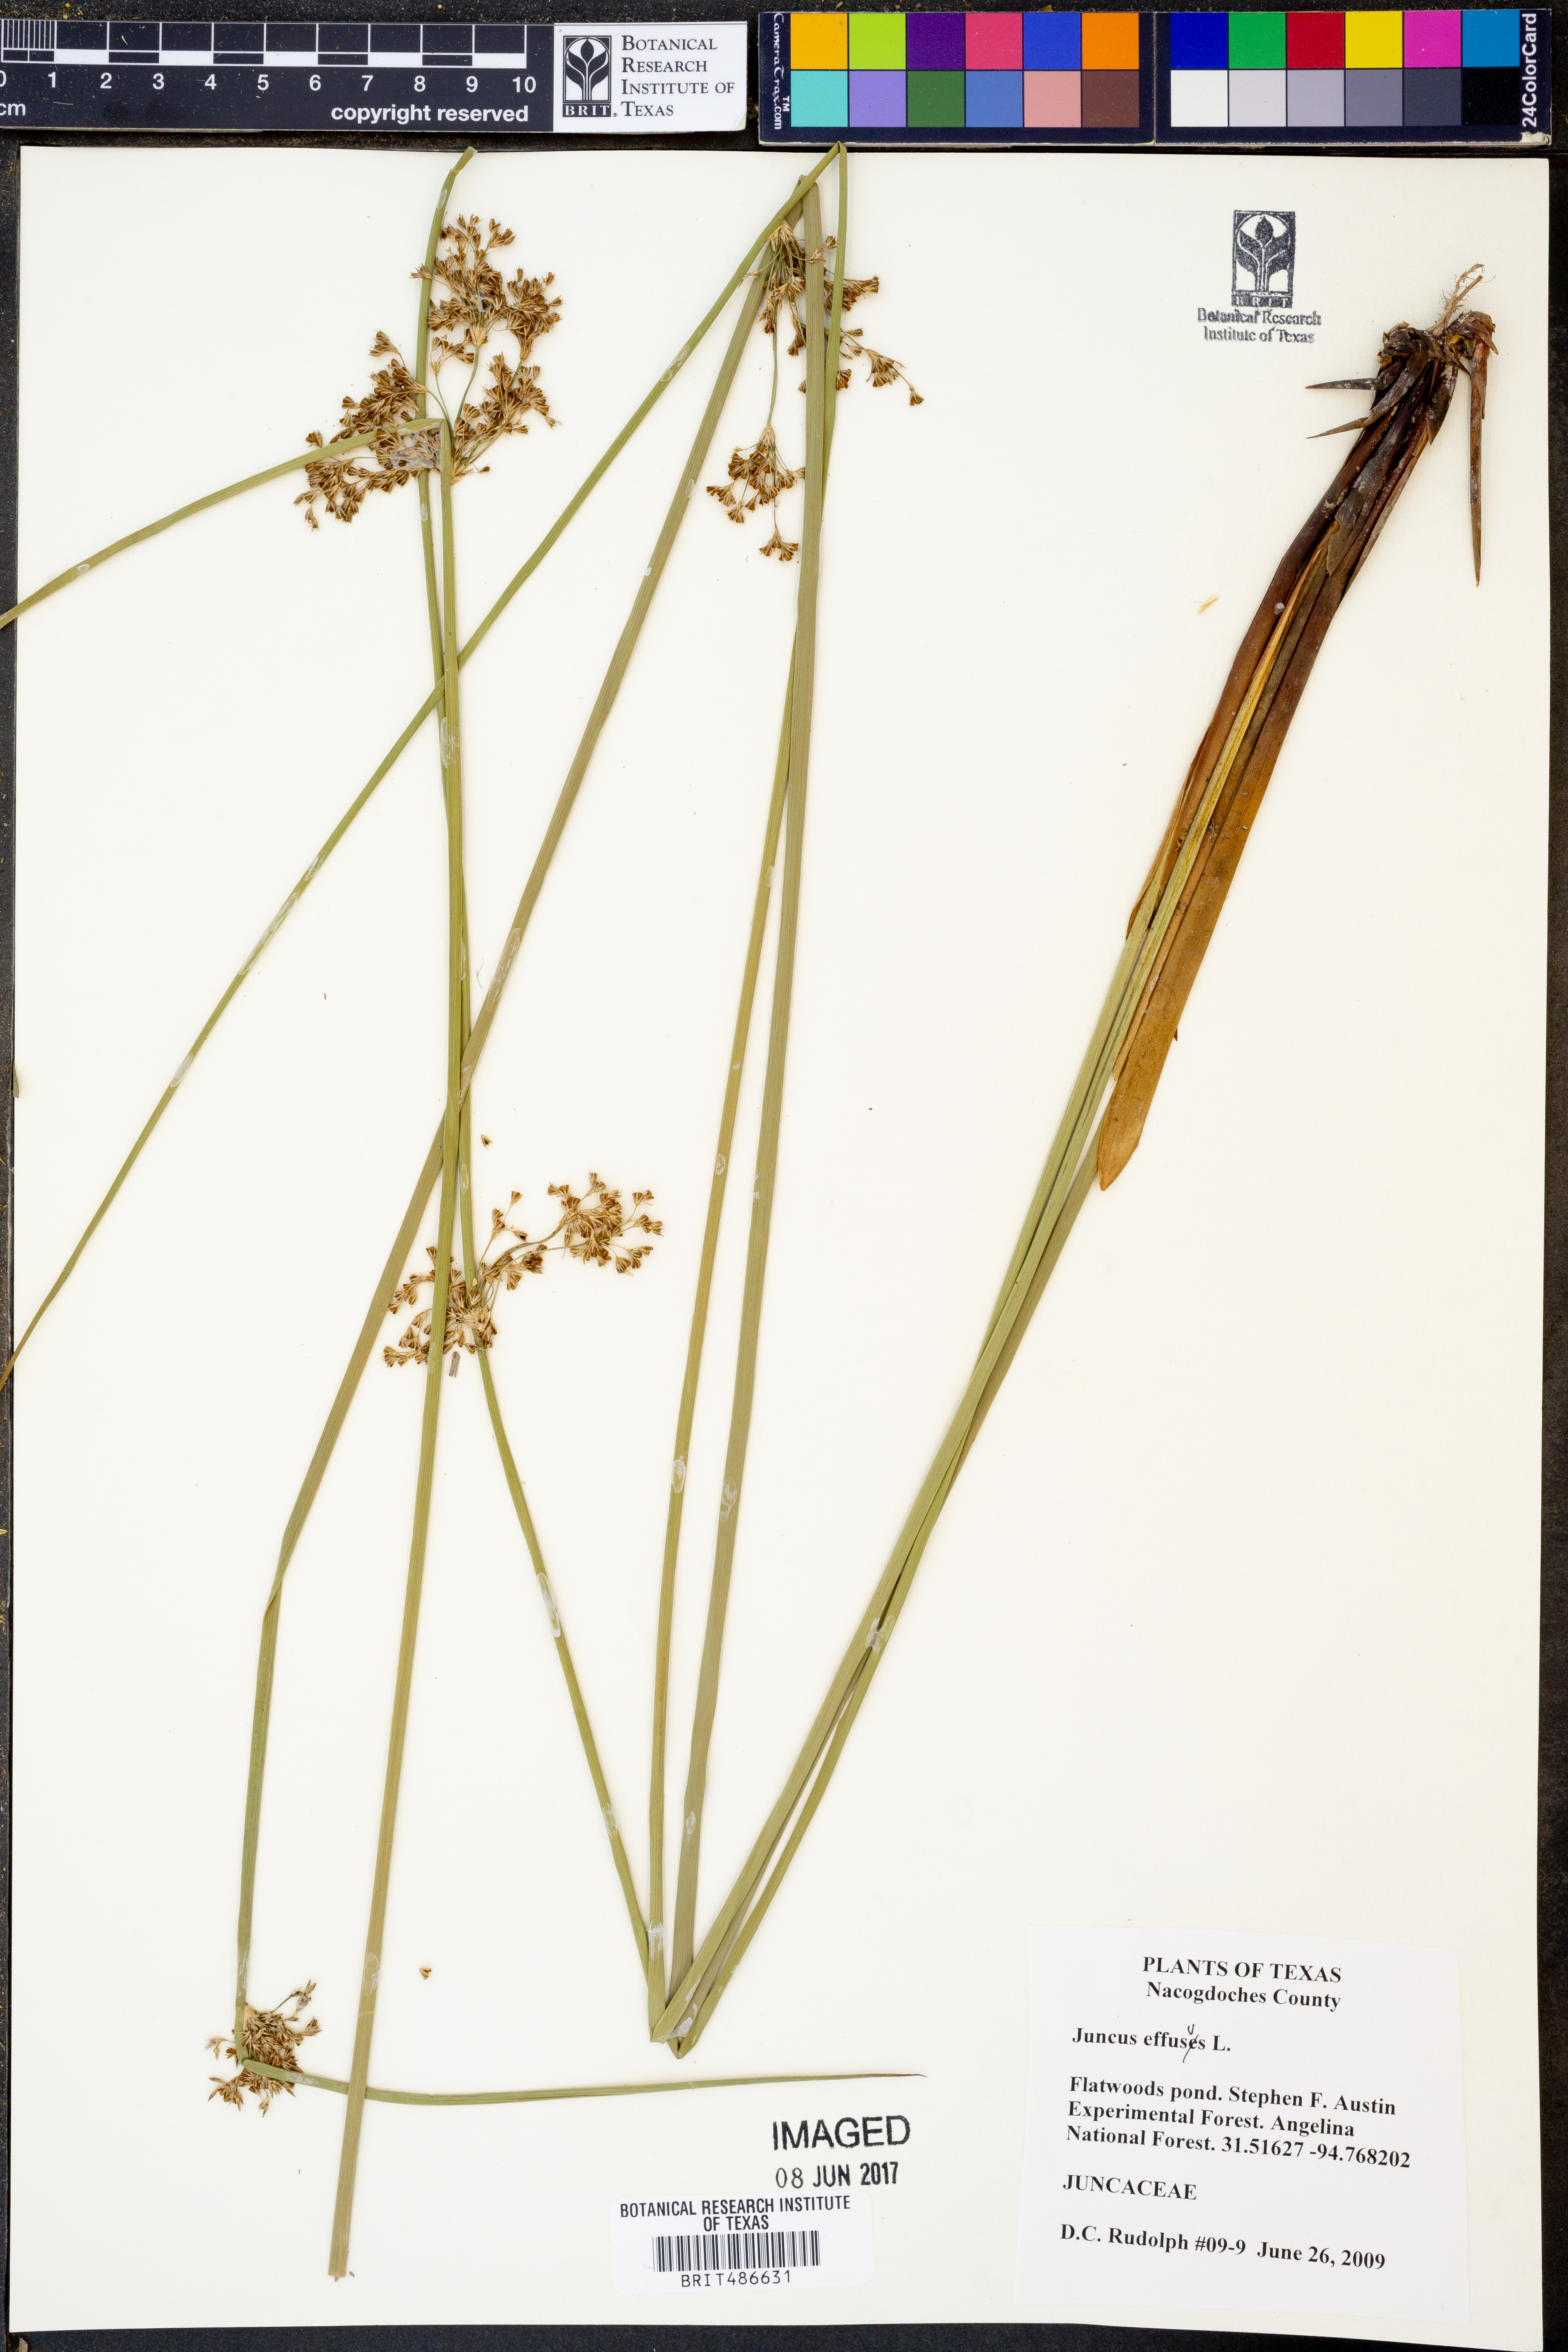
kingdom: Plantae
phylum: Tracheophyta
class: Liliopsida
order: Poales
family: Juncaceae
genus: Juncus
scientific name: Juncus effusus
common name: Soft rush
